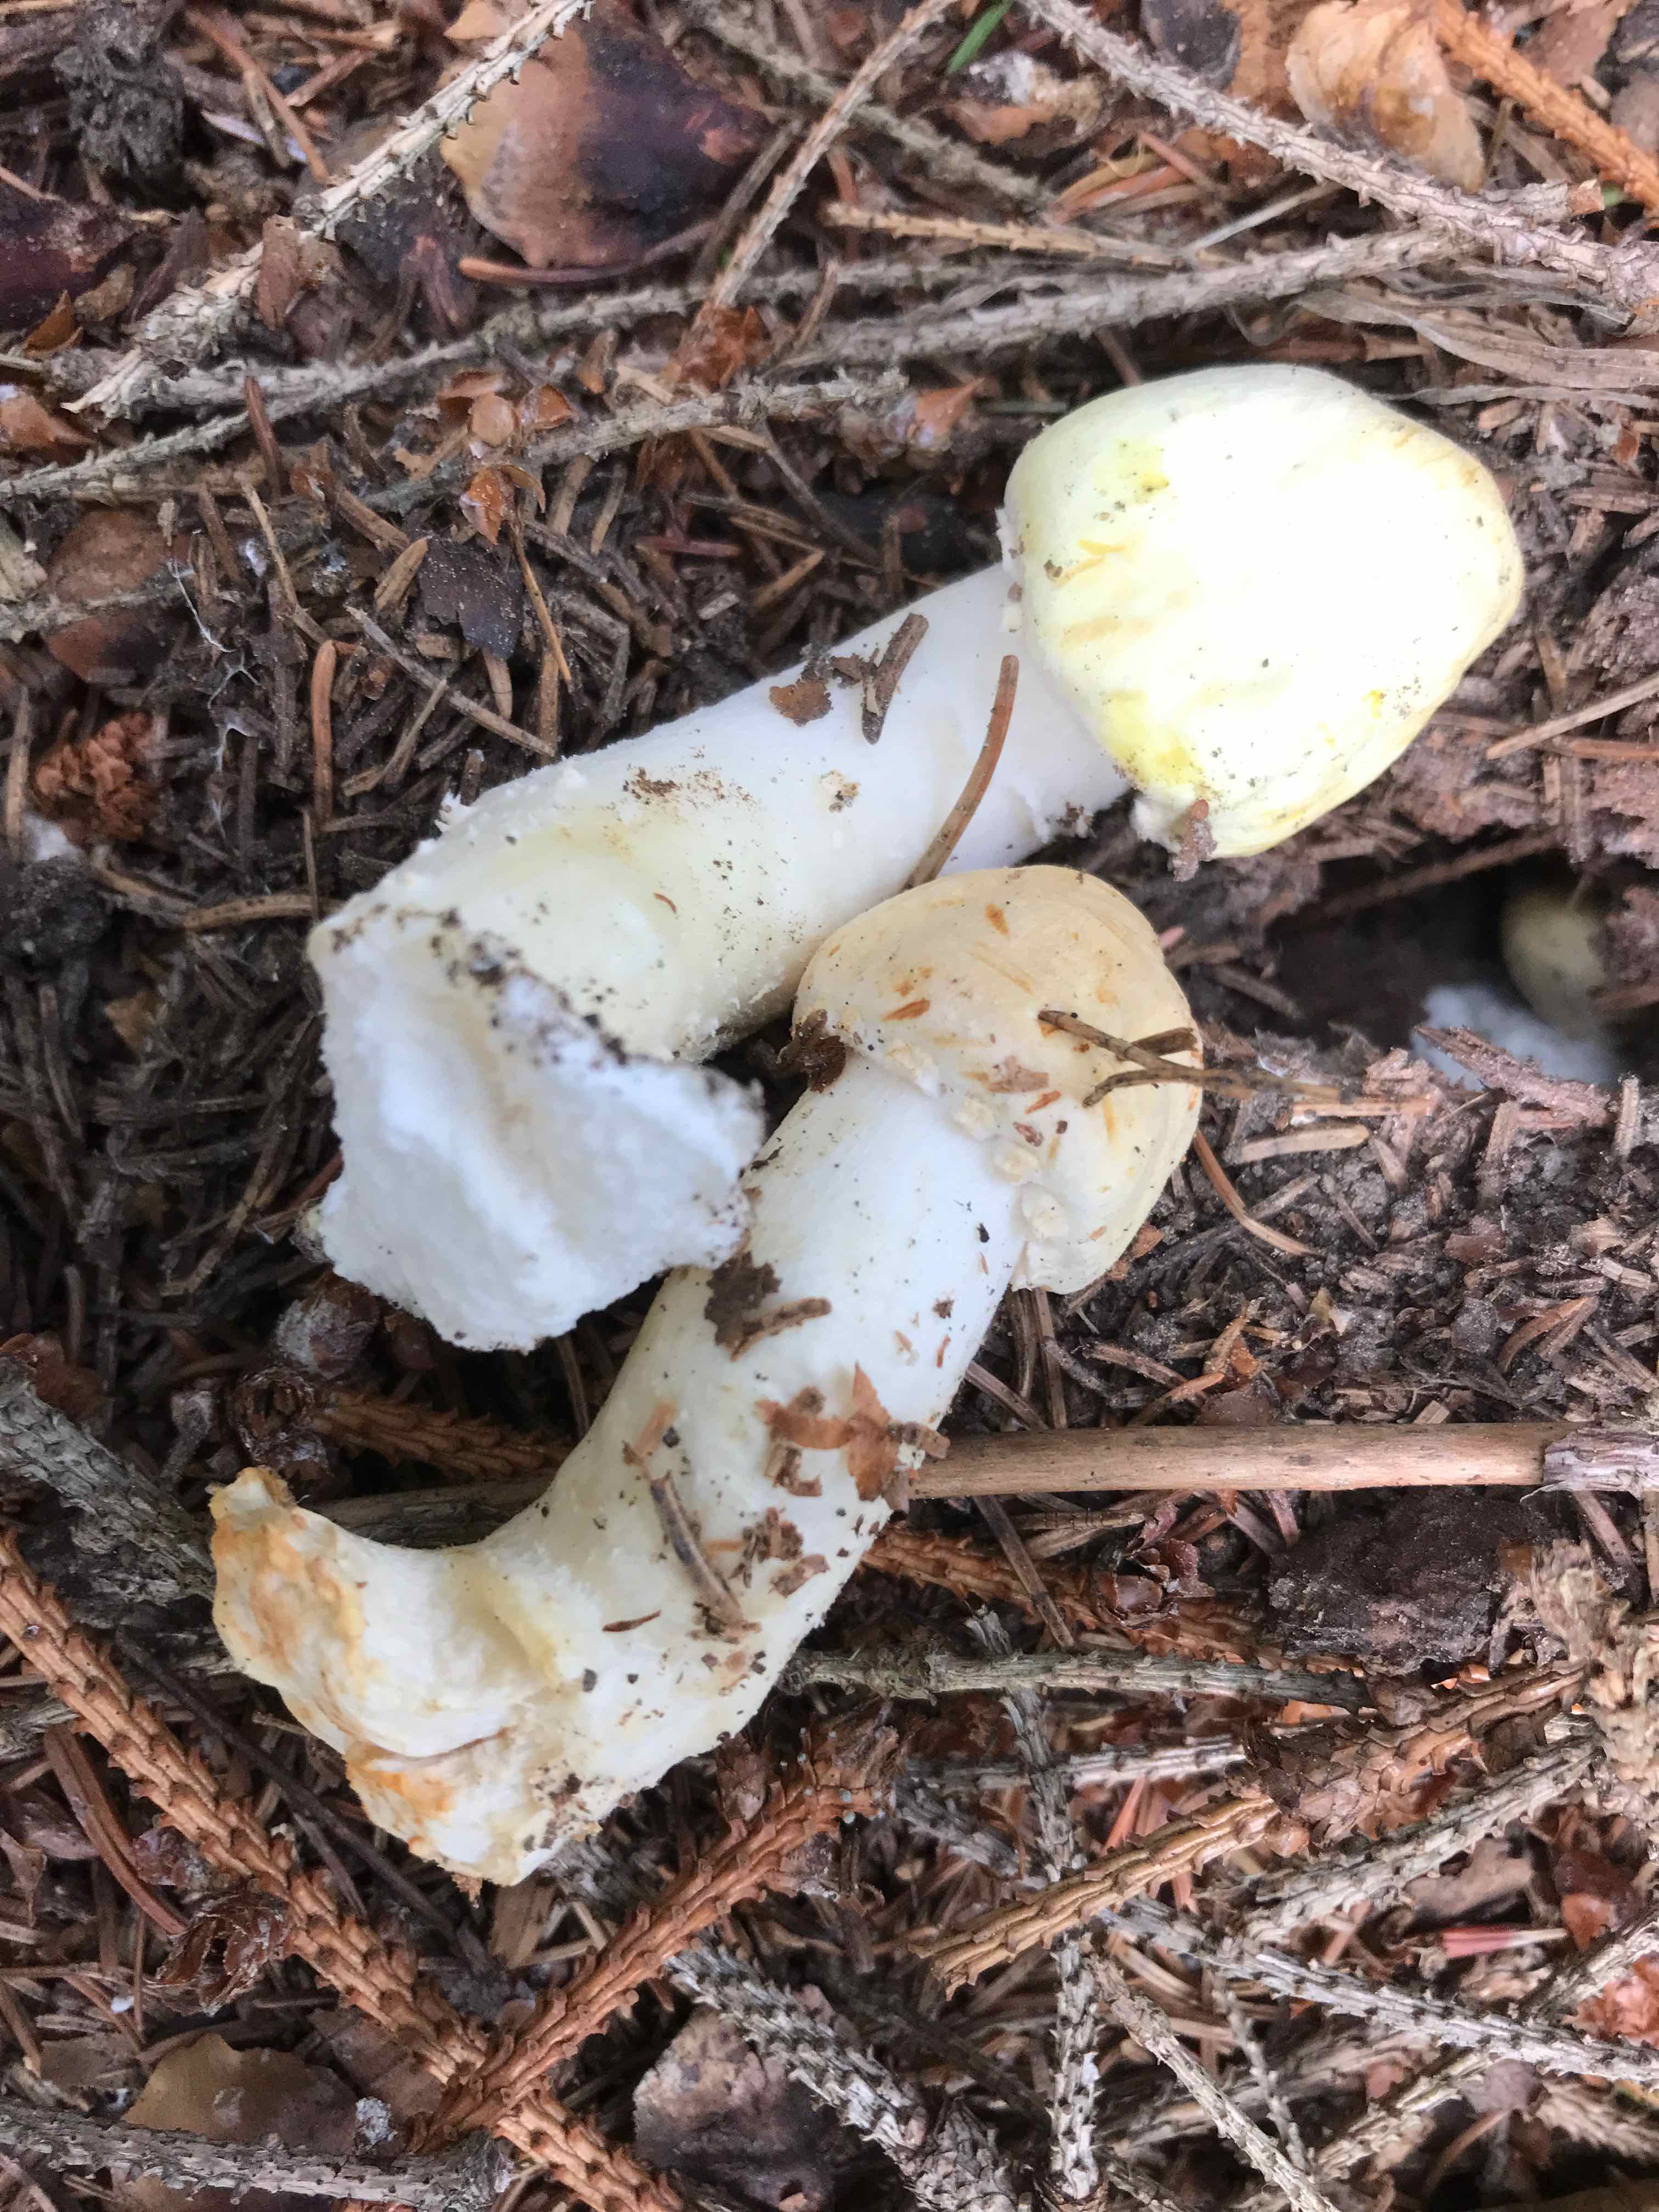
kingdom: Fungi
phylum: Basidiomycota
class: Agaricomycetes
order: Agaricales
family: Agaricaceae
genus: Agaricus
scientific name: Agaricus
